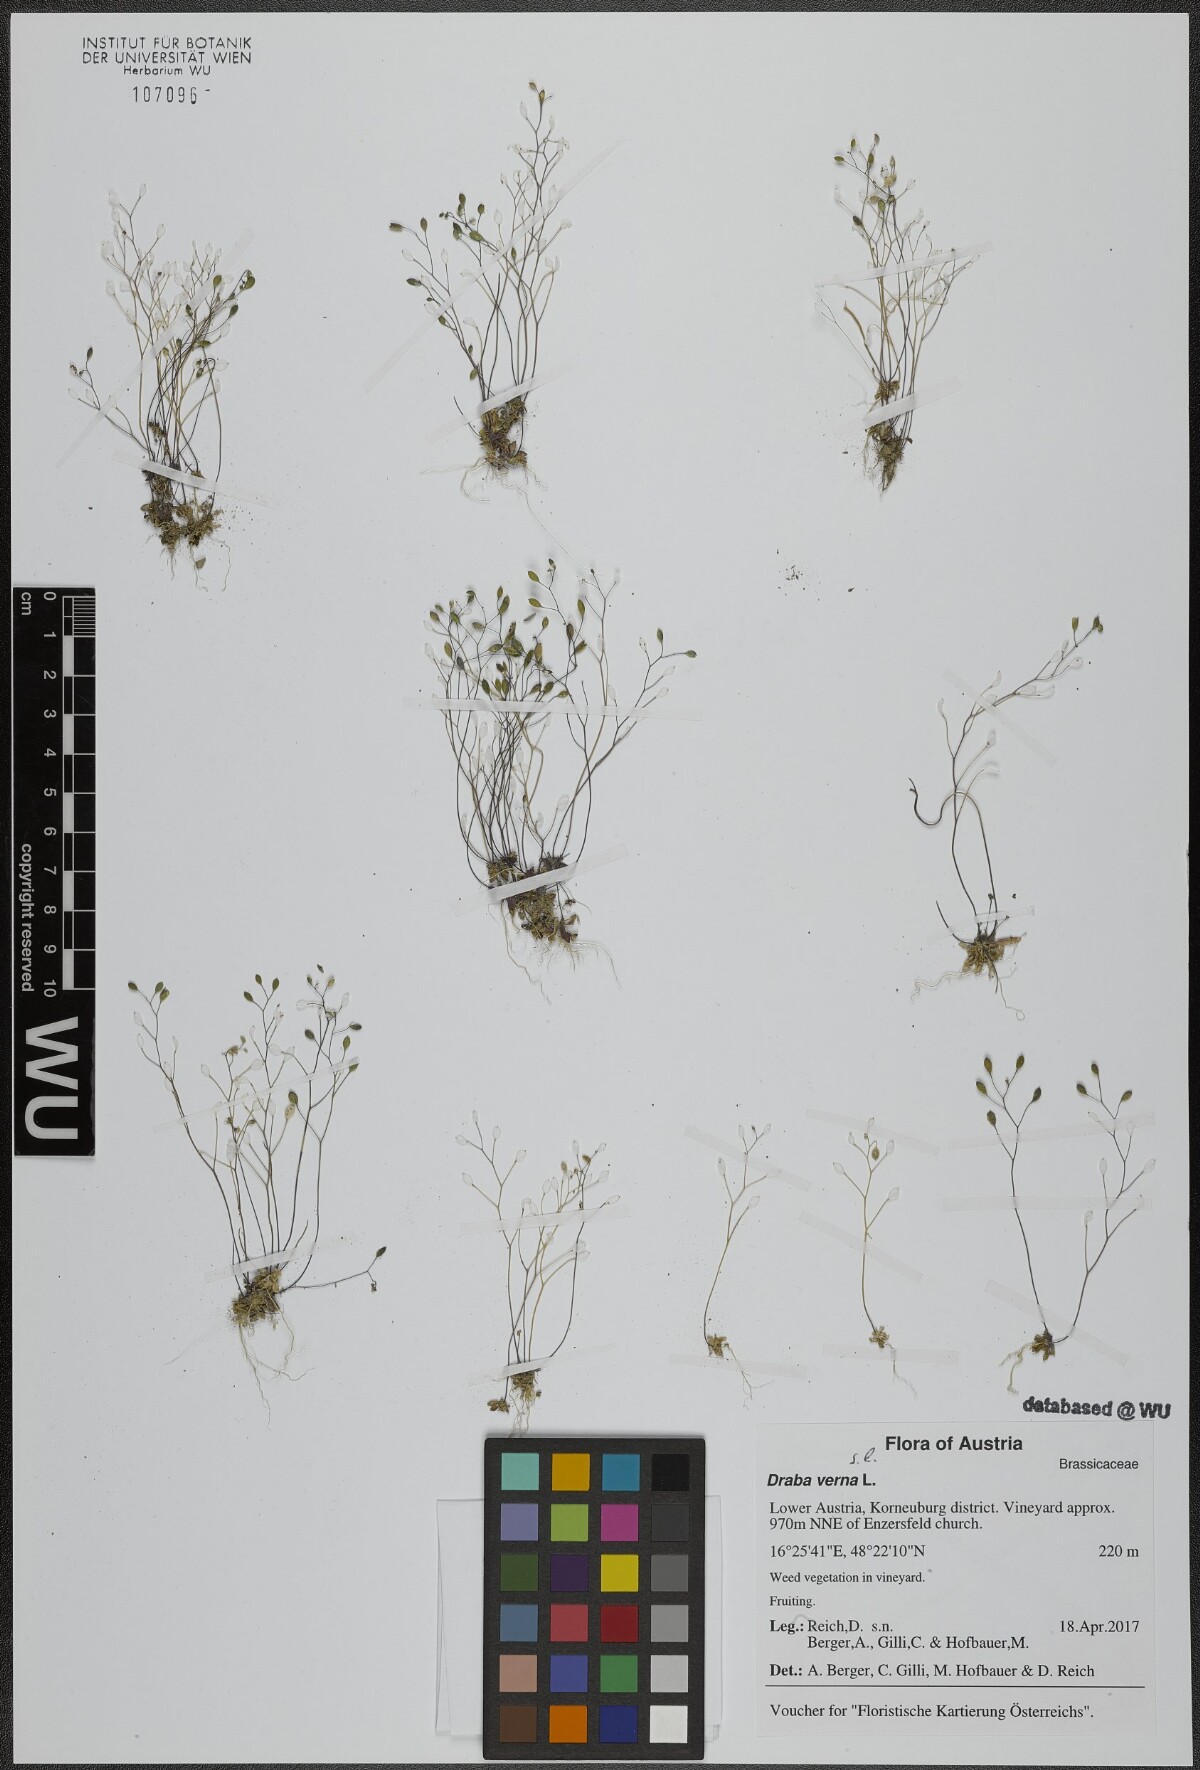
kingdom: Plantae
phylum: Tracheophyta
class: Magnoliopsida
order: Brassicales
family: Brassicaceae
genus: Draba
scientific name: Draba verna
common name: Spring draba
